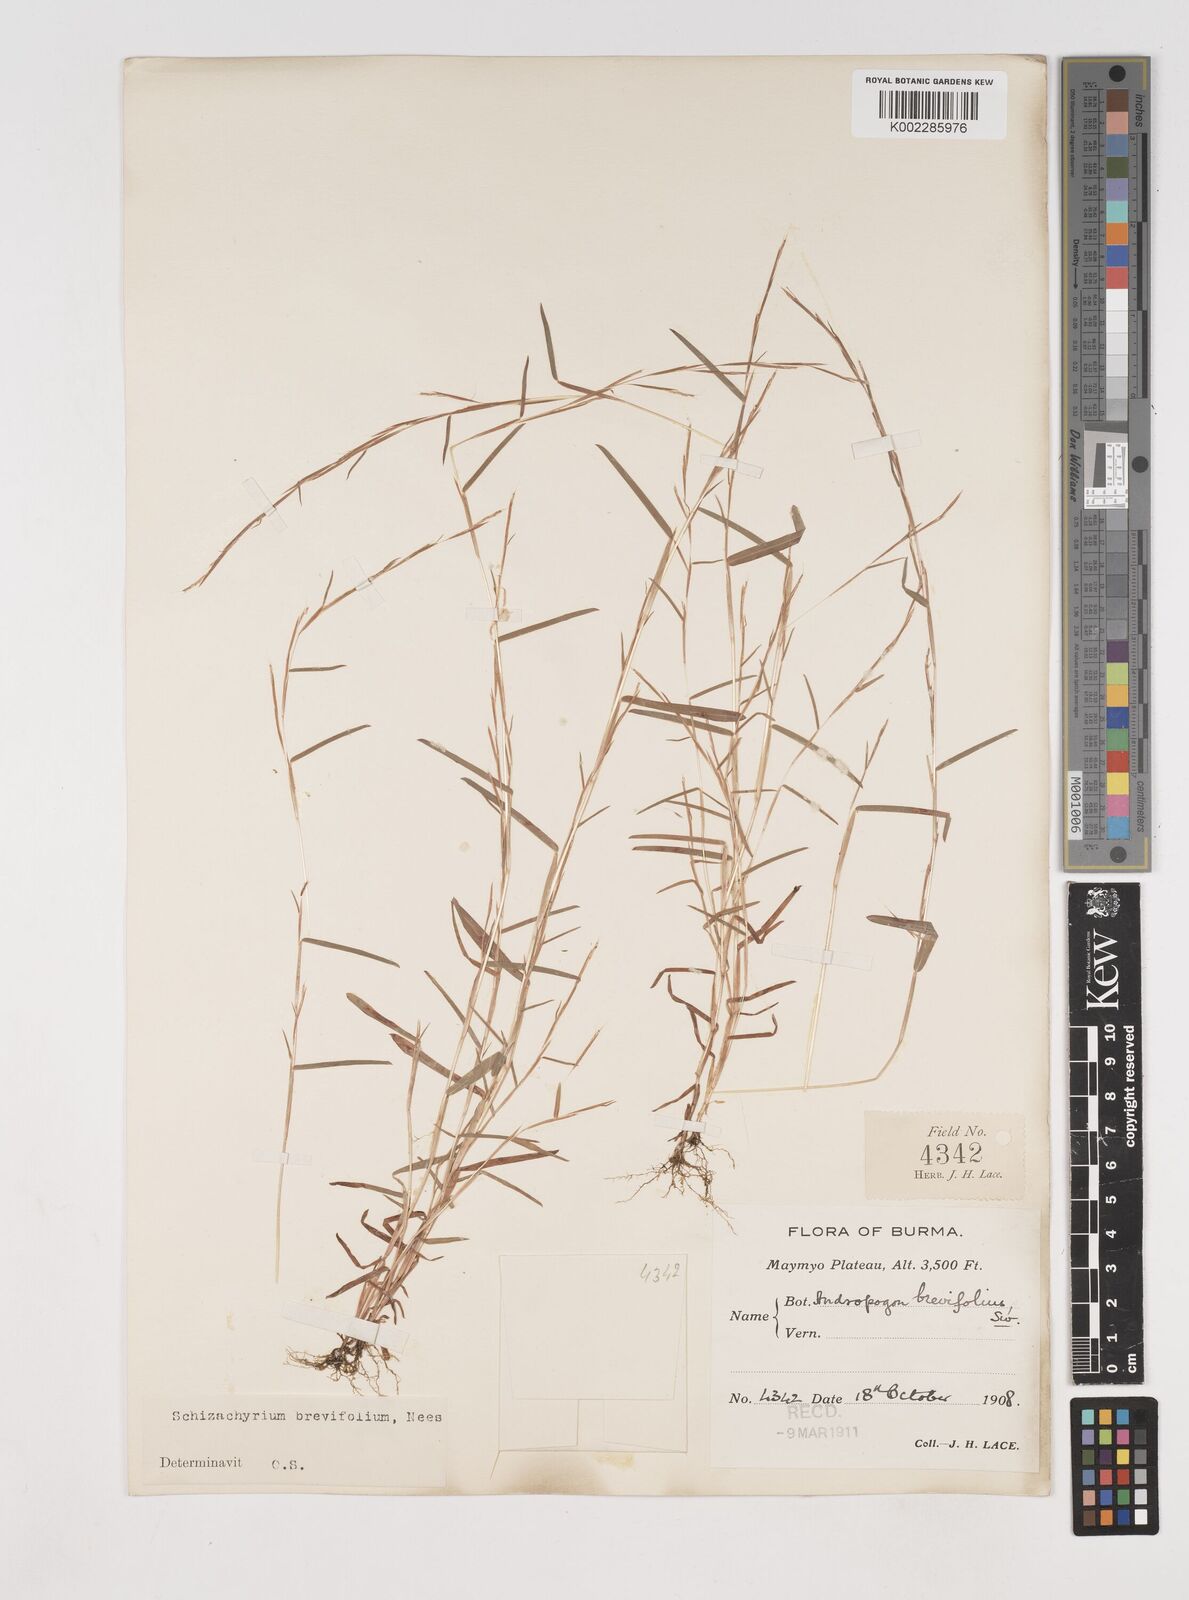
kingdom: Plantae
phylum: Tracheophyta
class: Liliopsida
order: Poales
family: Poaceae
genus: Schizachyrium
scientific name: Schizachyrium brevifolium
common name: Serillo dulce
